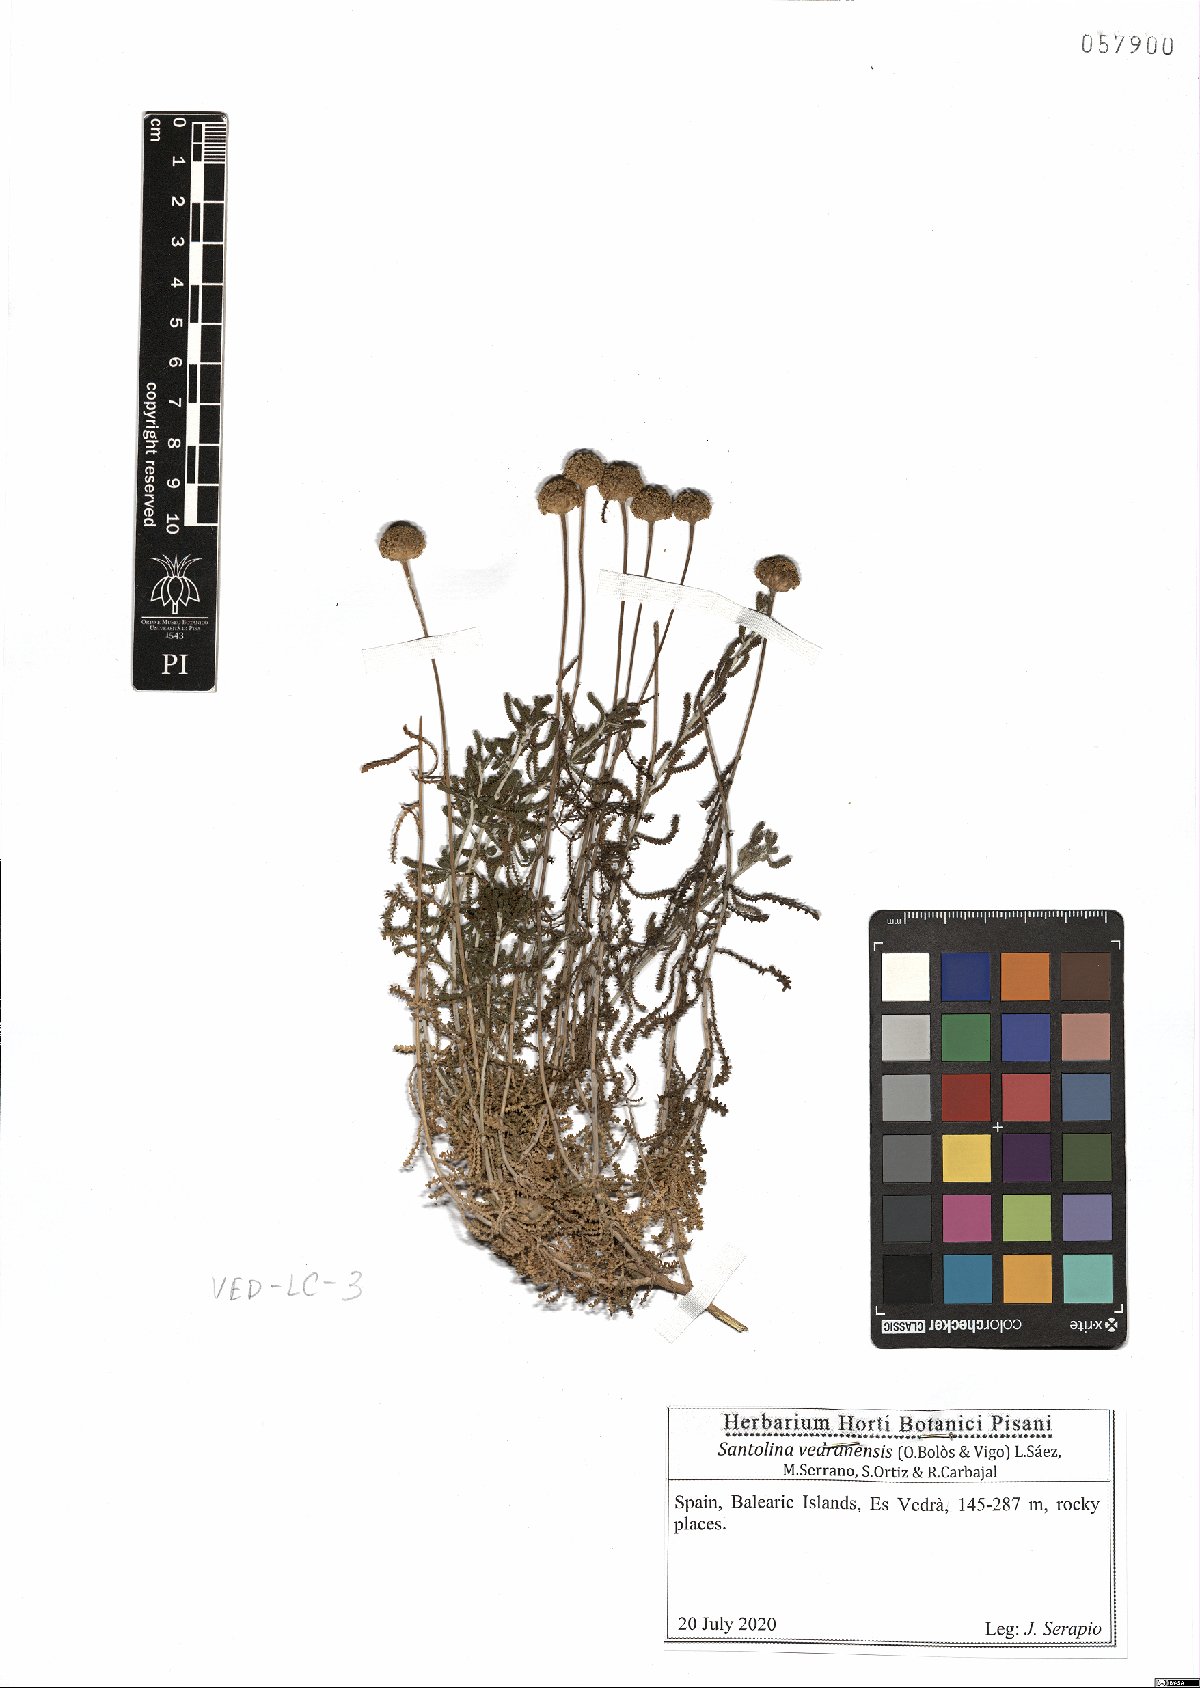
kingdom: Plantae
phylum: Tracheophyta
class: Magnoliopsida
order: Asterales
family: Asteraceae
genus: Santolina
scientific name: Santolina vedranensis
